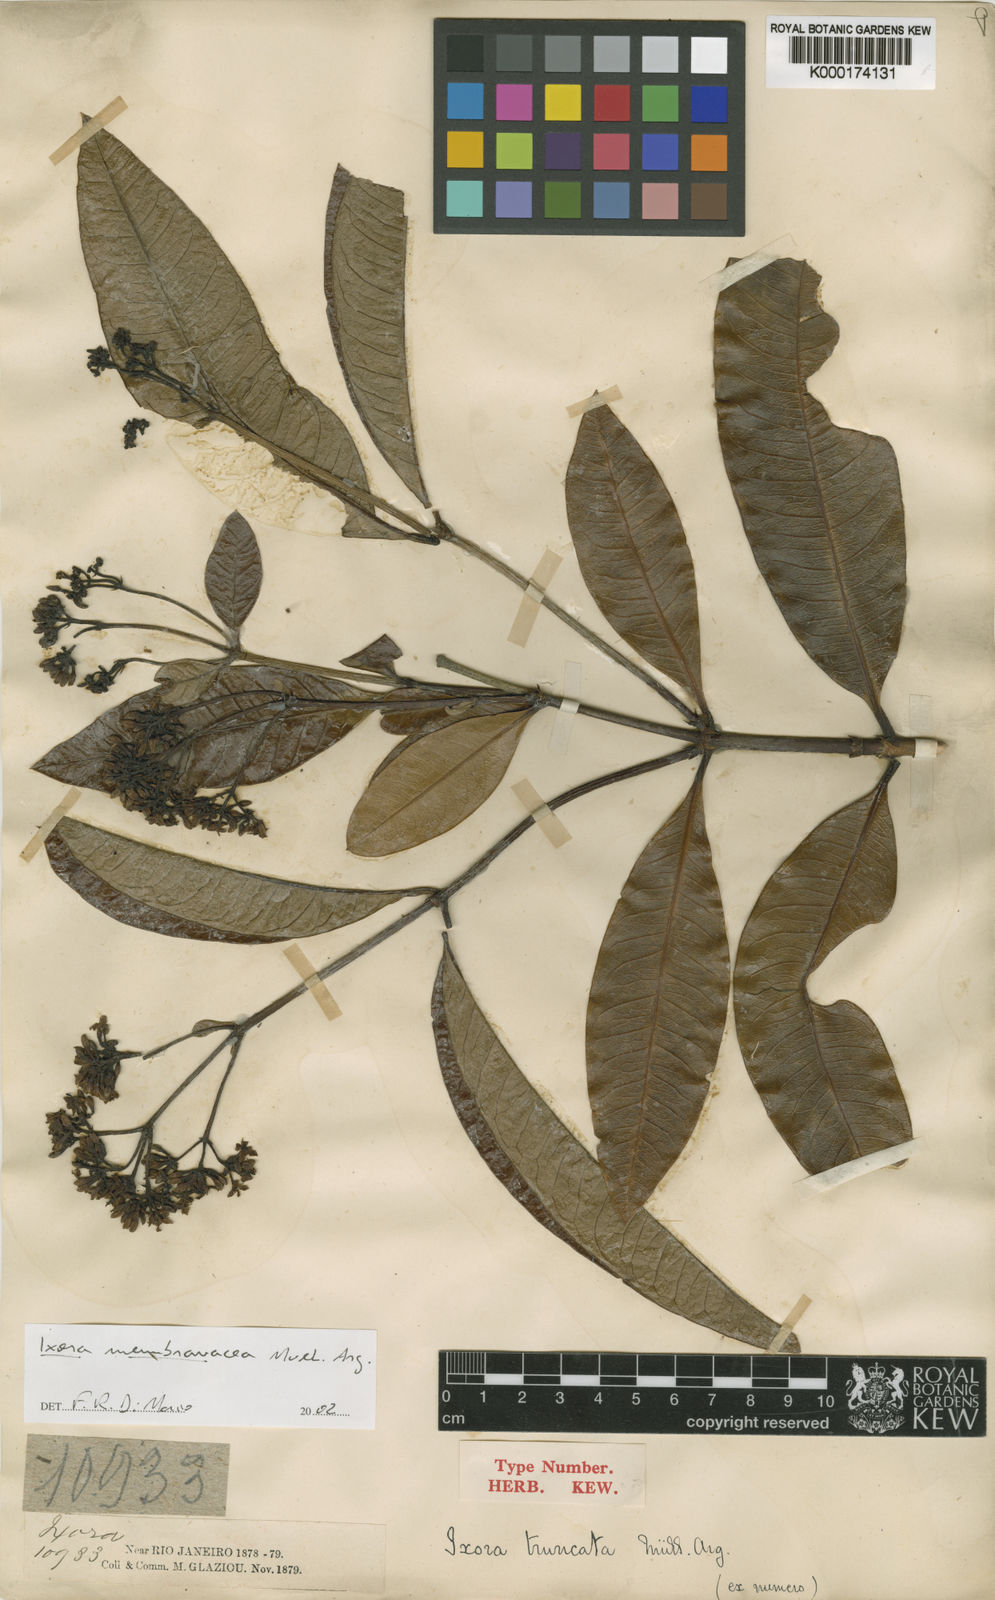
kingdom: Plantae
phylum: Tracheophyta
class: Magnoliopsida
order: Gentianales
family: Rubiaceae
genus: Ixora
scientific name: Ixora
